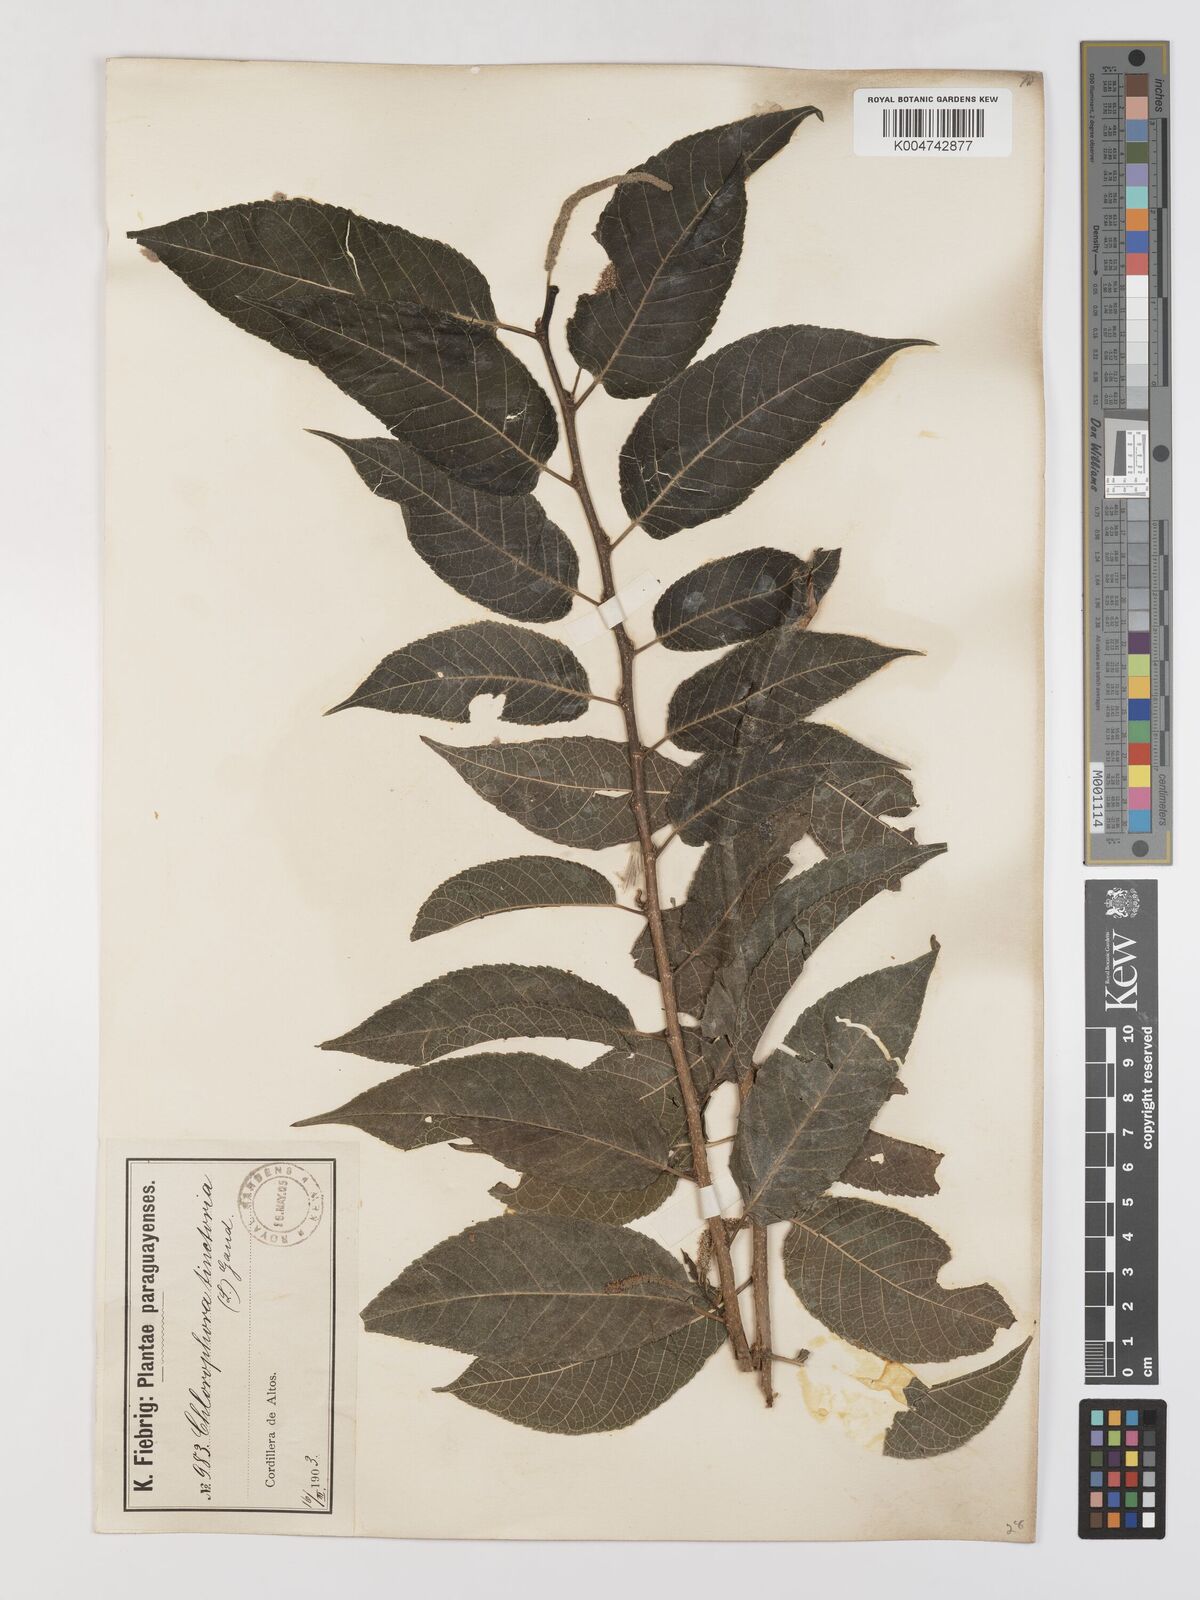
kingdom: Plantae
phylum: Tracheophyta
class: Magnoliopsida
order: Rosales
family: Moraceae
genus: Maclura
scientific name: Maclura tinctoria
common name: Old fustic
